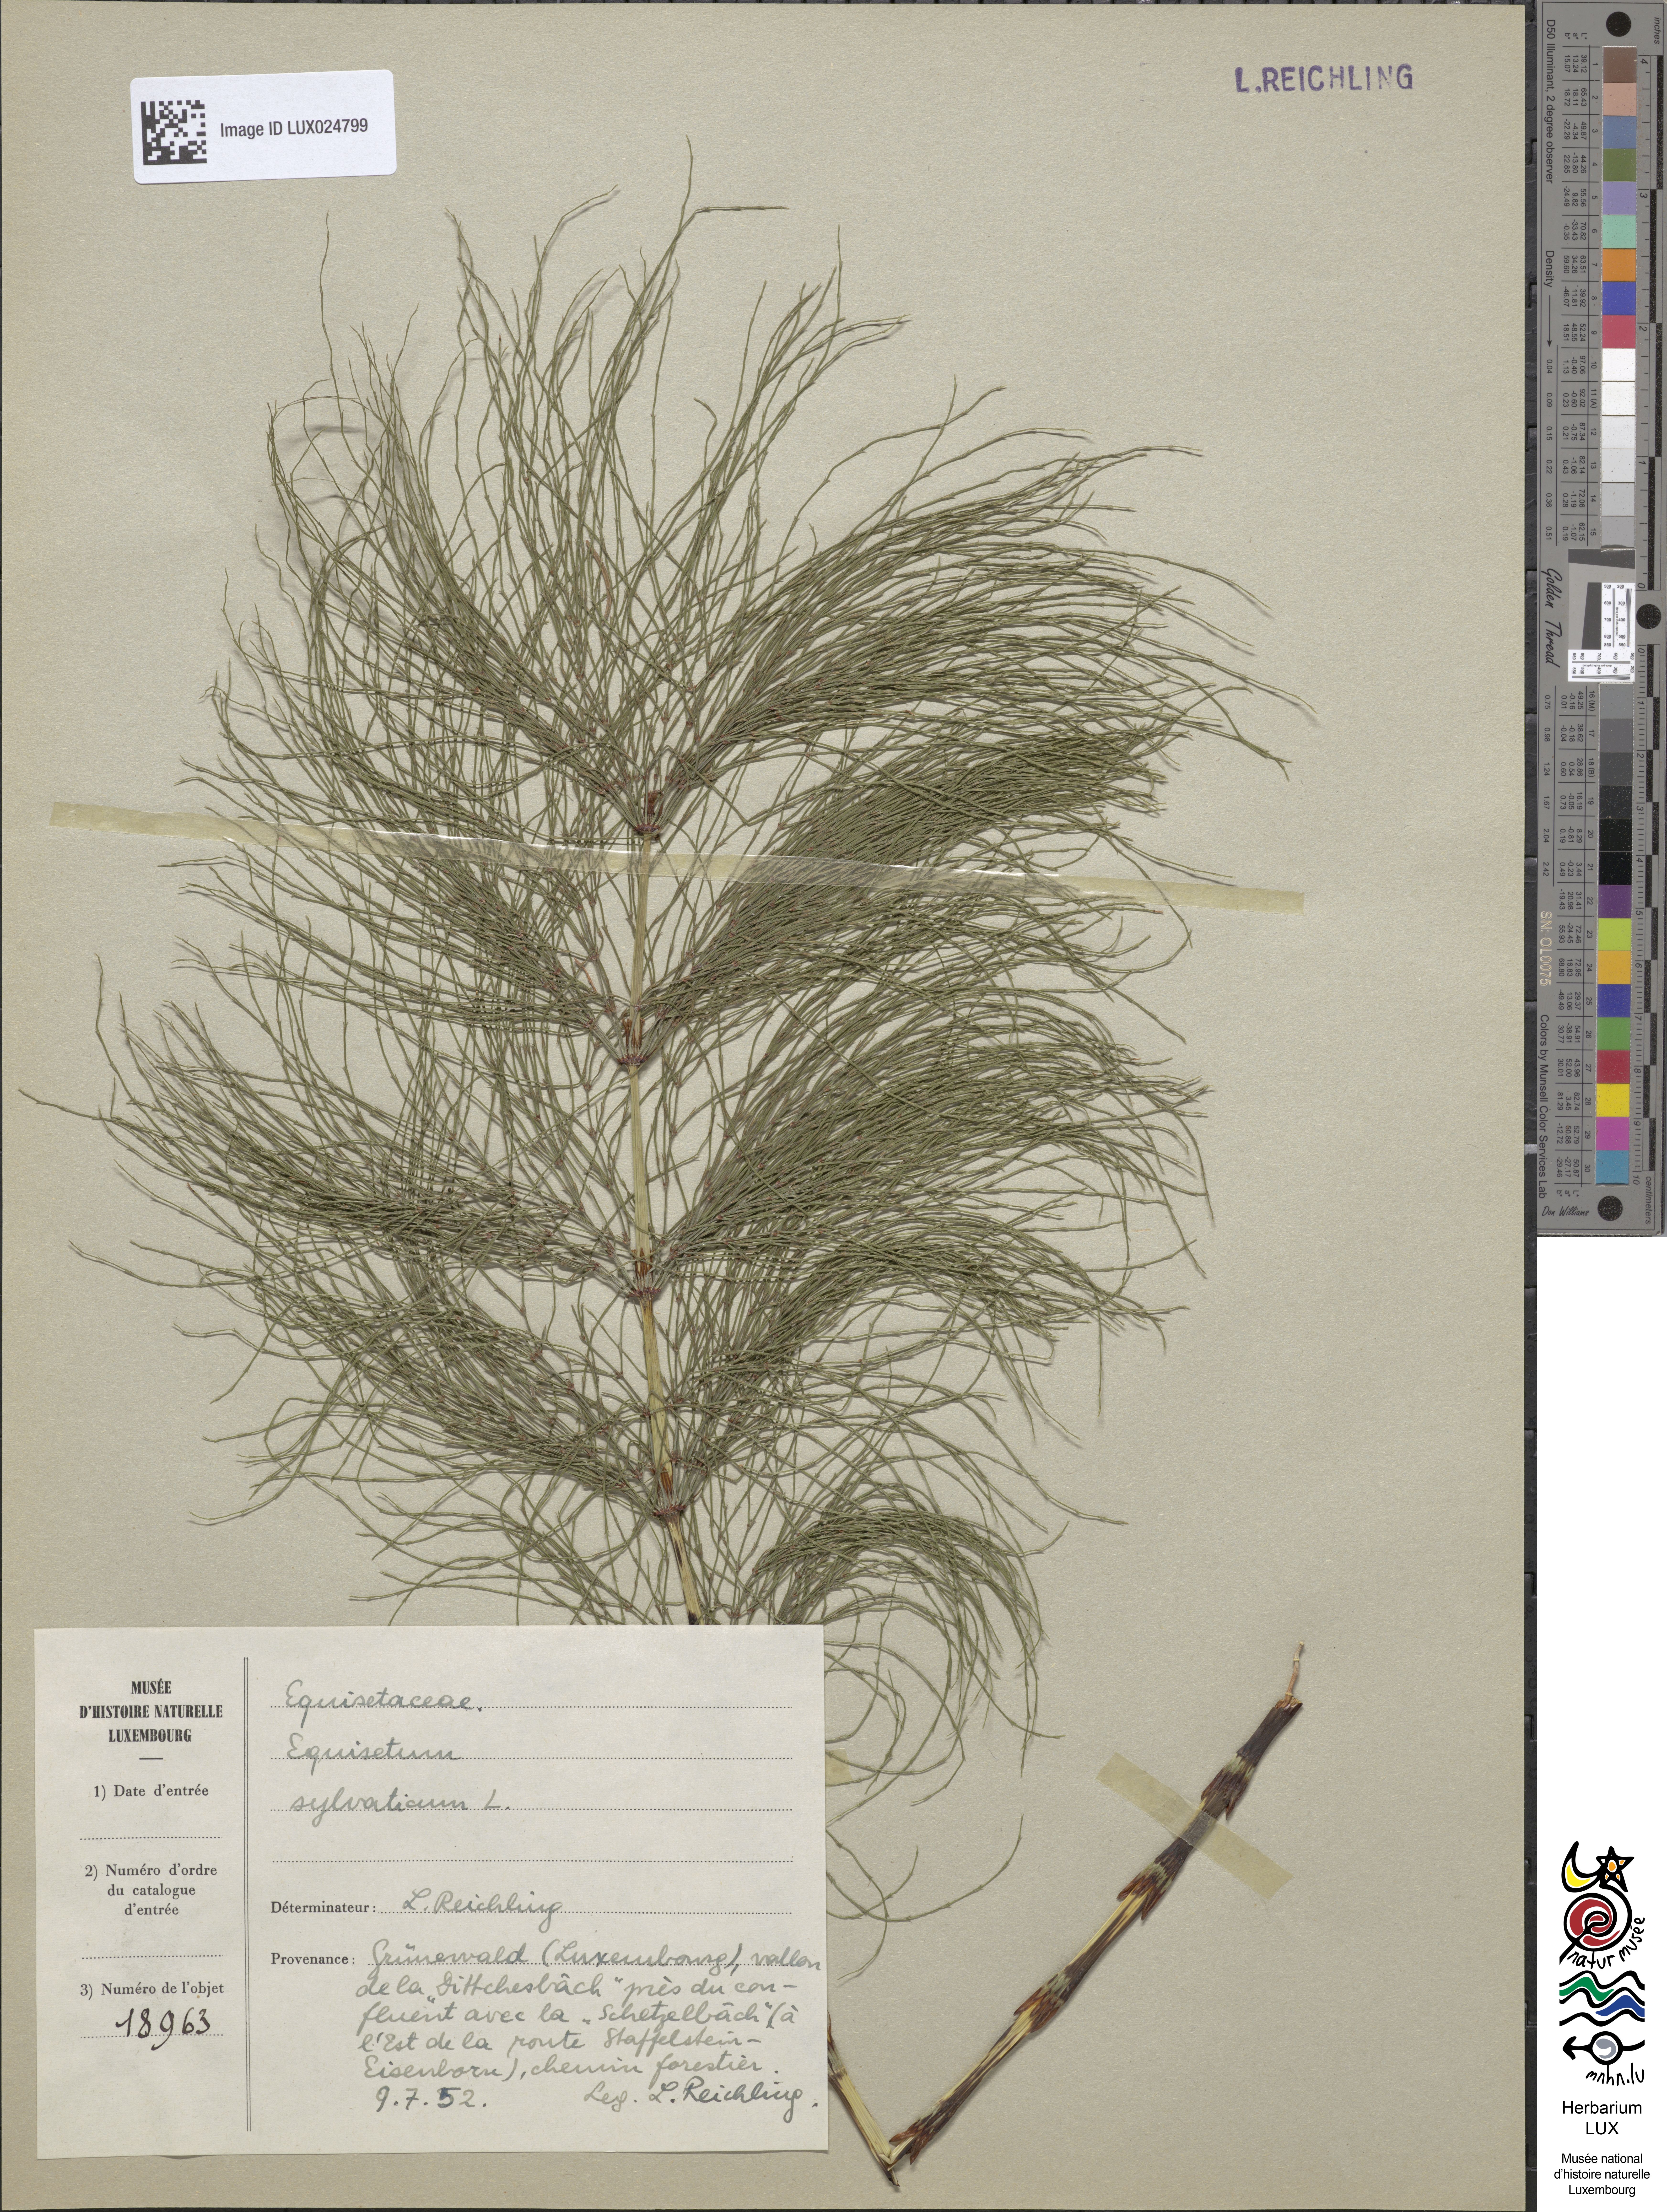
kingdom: Plantae
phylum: Tracheophyta
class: Polypodiopsida
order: Equisetales
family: Equisetaceae
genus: Equisetum
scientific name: Equisetum sylvaticum
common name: Wood horsetail
